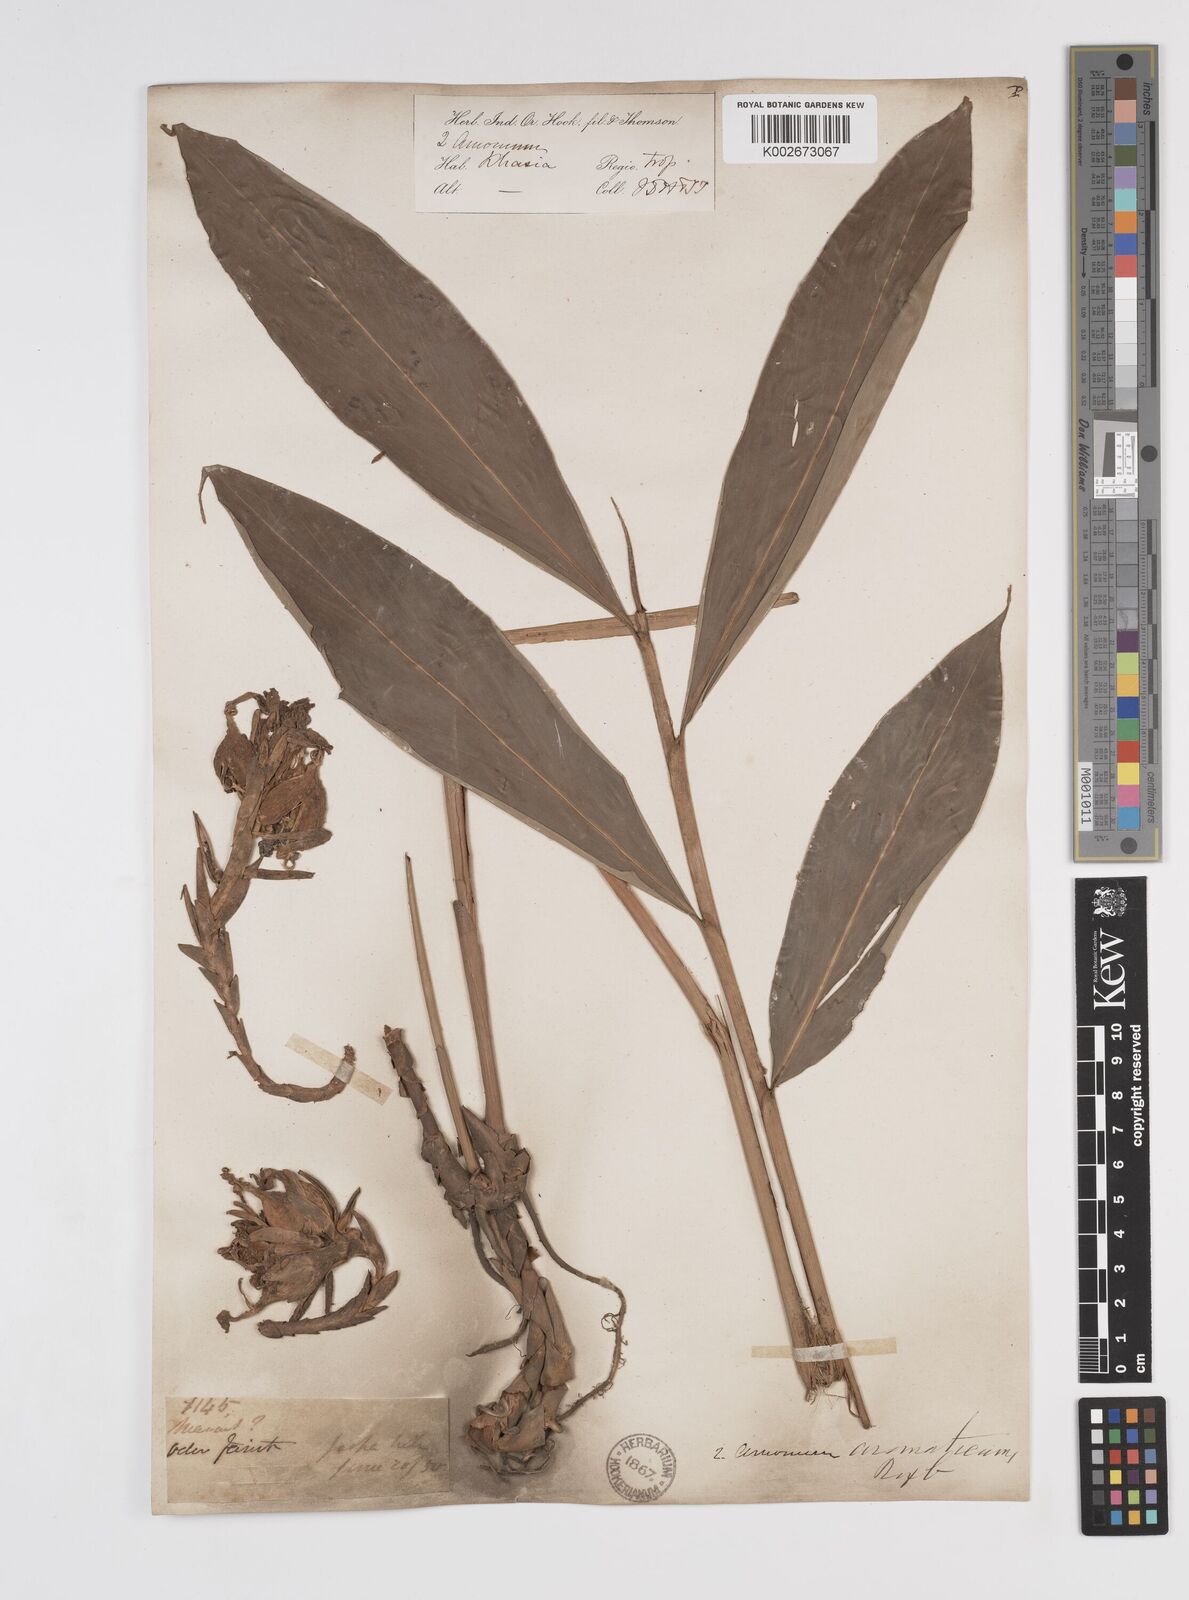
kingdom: Plantae
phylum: Tracheophyta
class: Liliopsida
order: Zingiberales
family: Zingiberaceae
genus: Wurfbainia
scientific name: Wurfbainia aromatica
